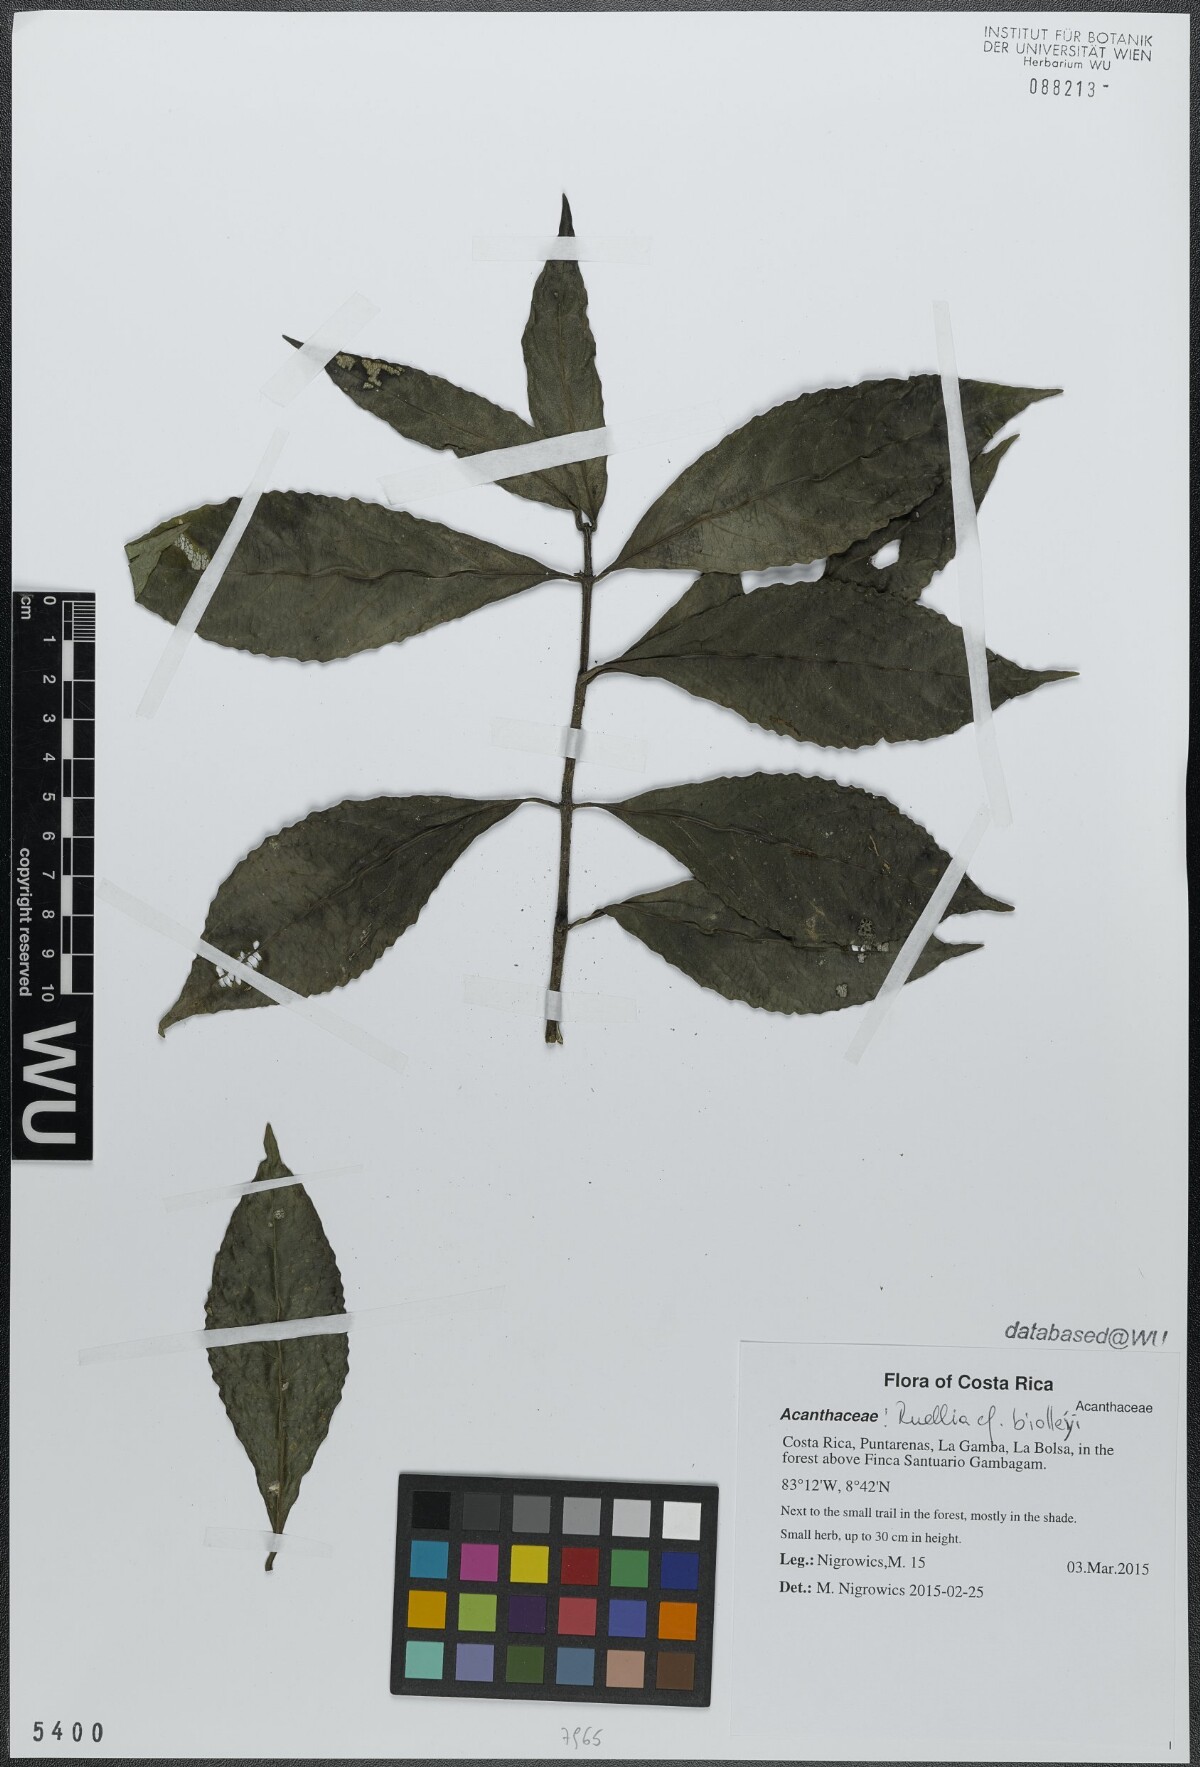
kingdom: Plantae
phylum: Tracheophyta
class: Magnoliopsida
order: Lamiales
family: Acanthaceae
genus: Ruellia
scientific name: Ruellia terminalis
